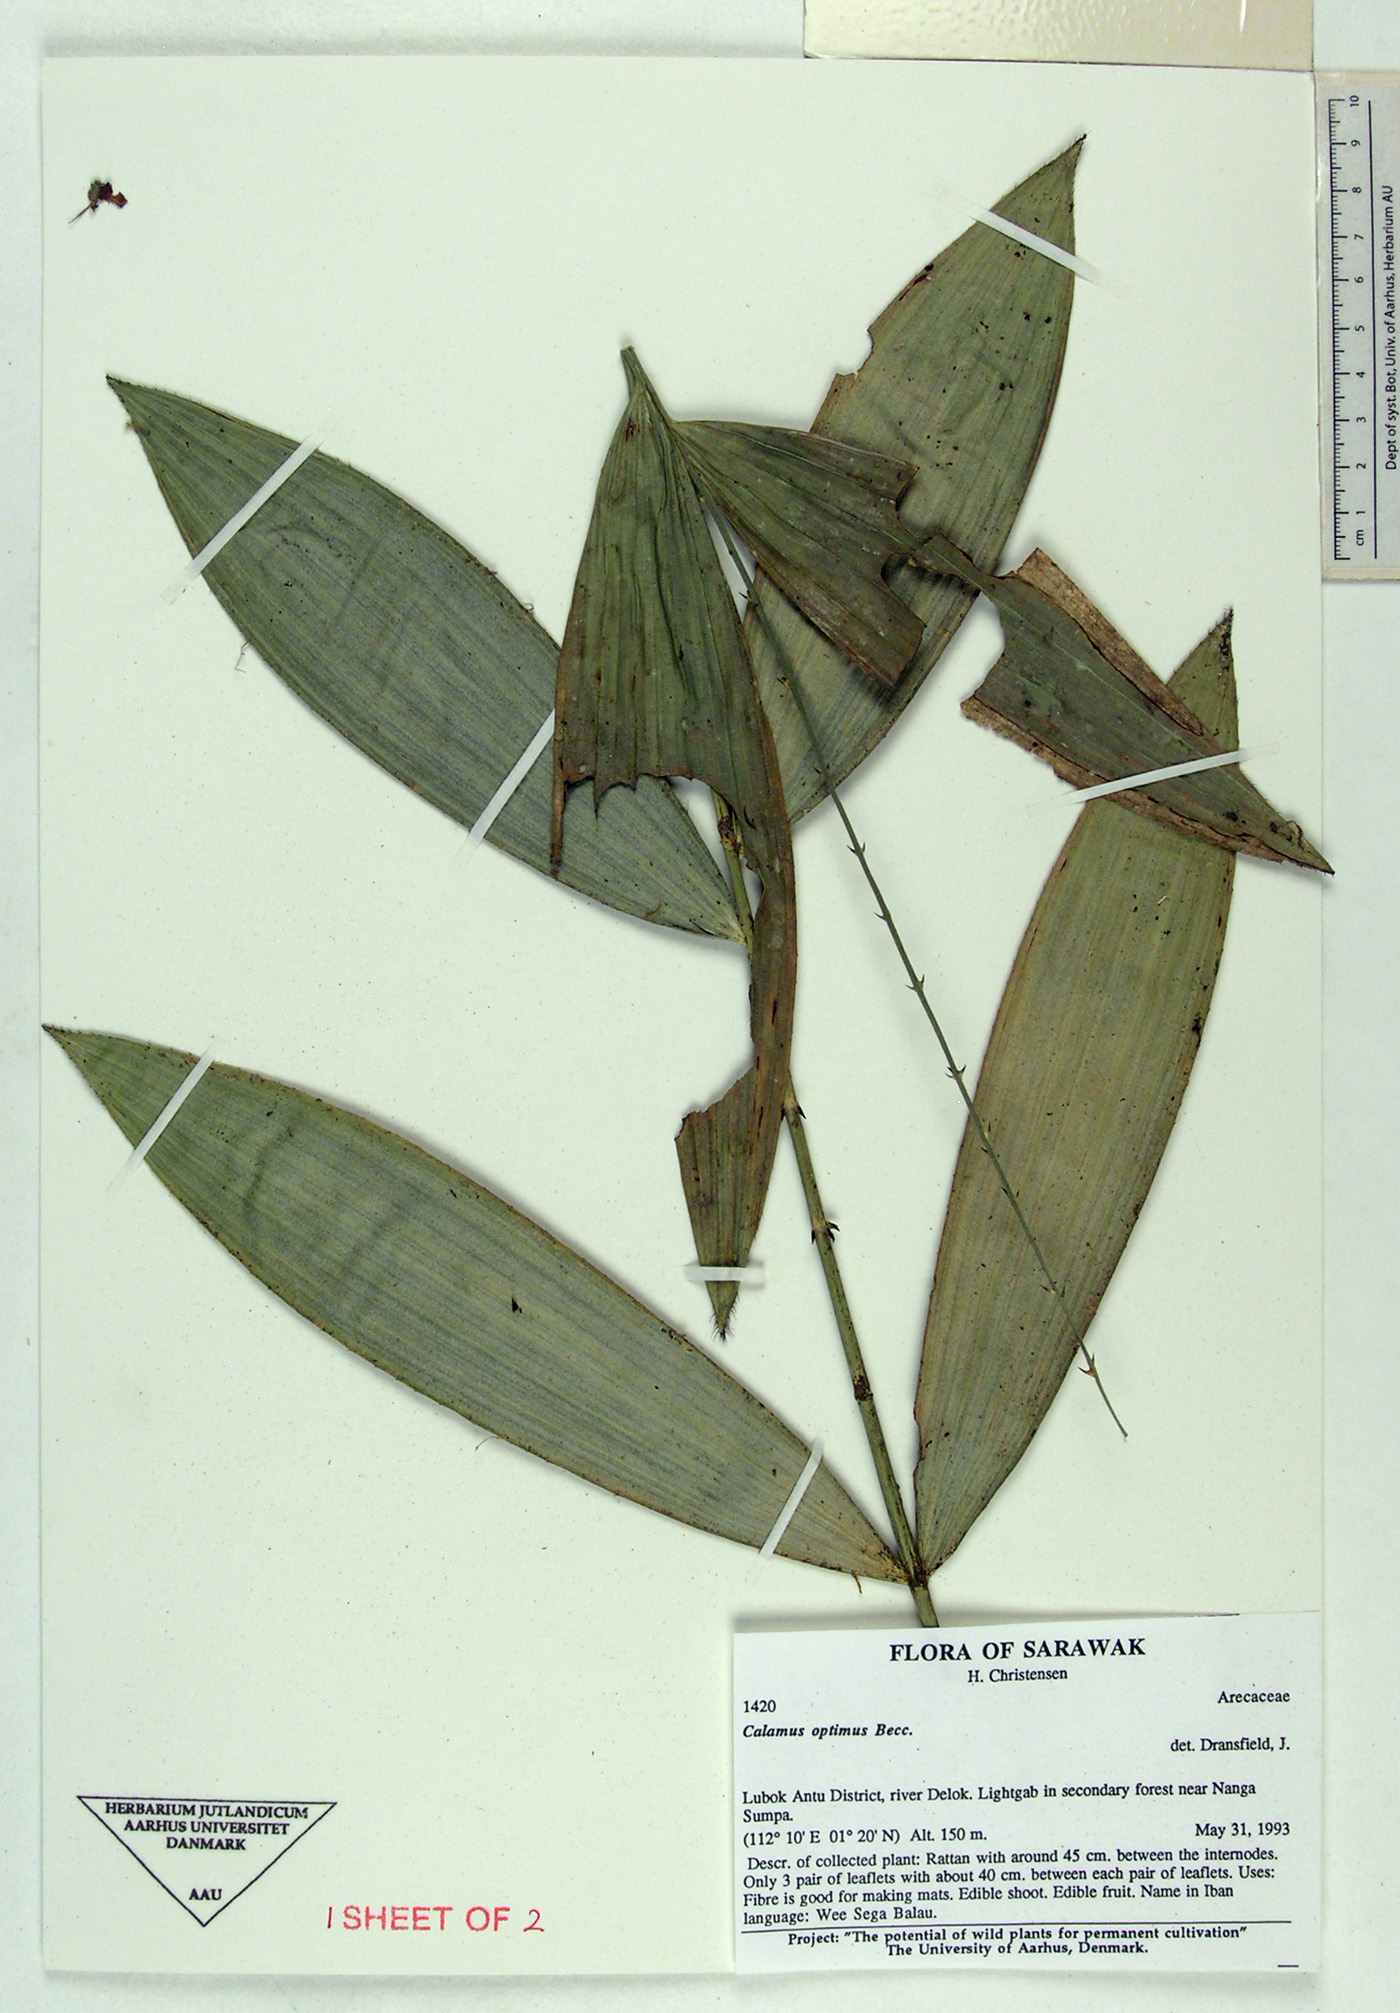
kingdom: Plantae
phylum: Tracheophyta
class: Liliopsida
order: Arecales
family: Arecaceae
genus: Calamus
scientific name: Calamus optimus
